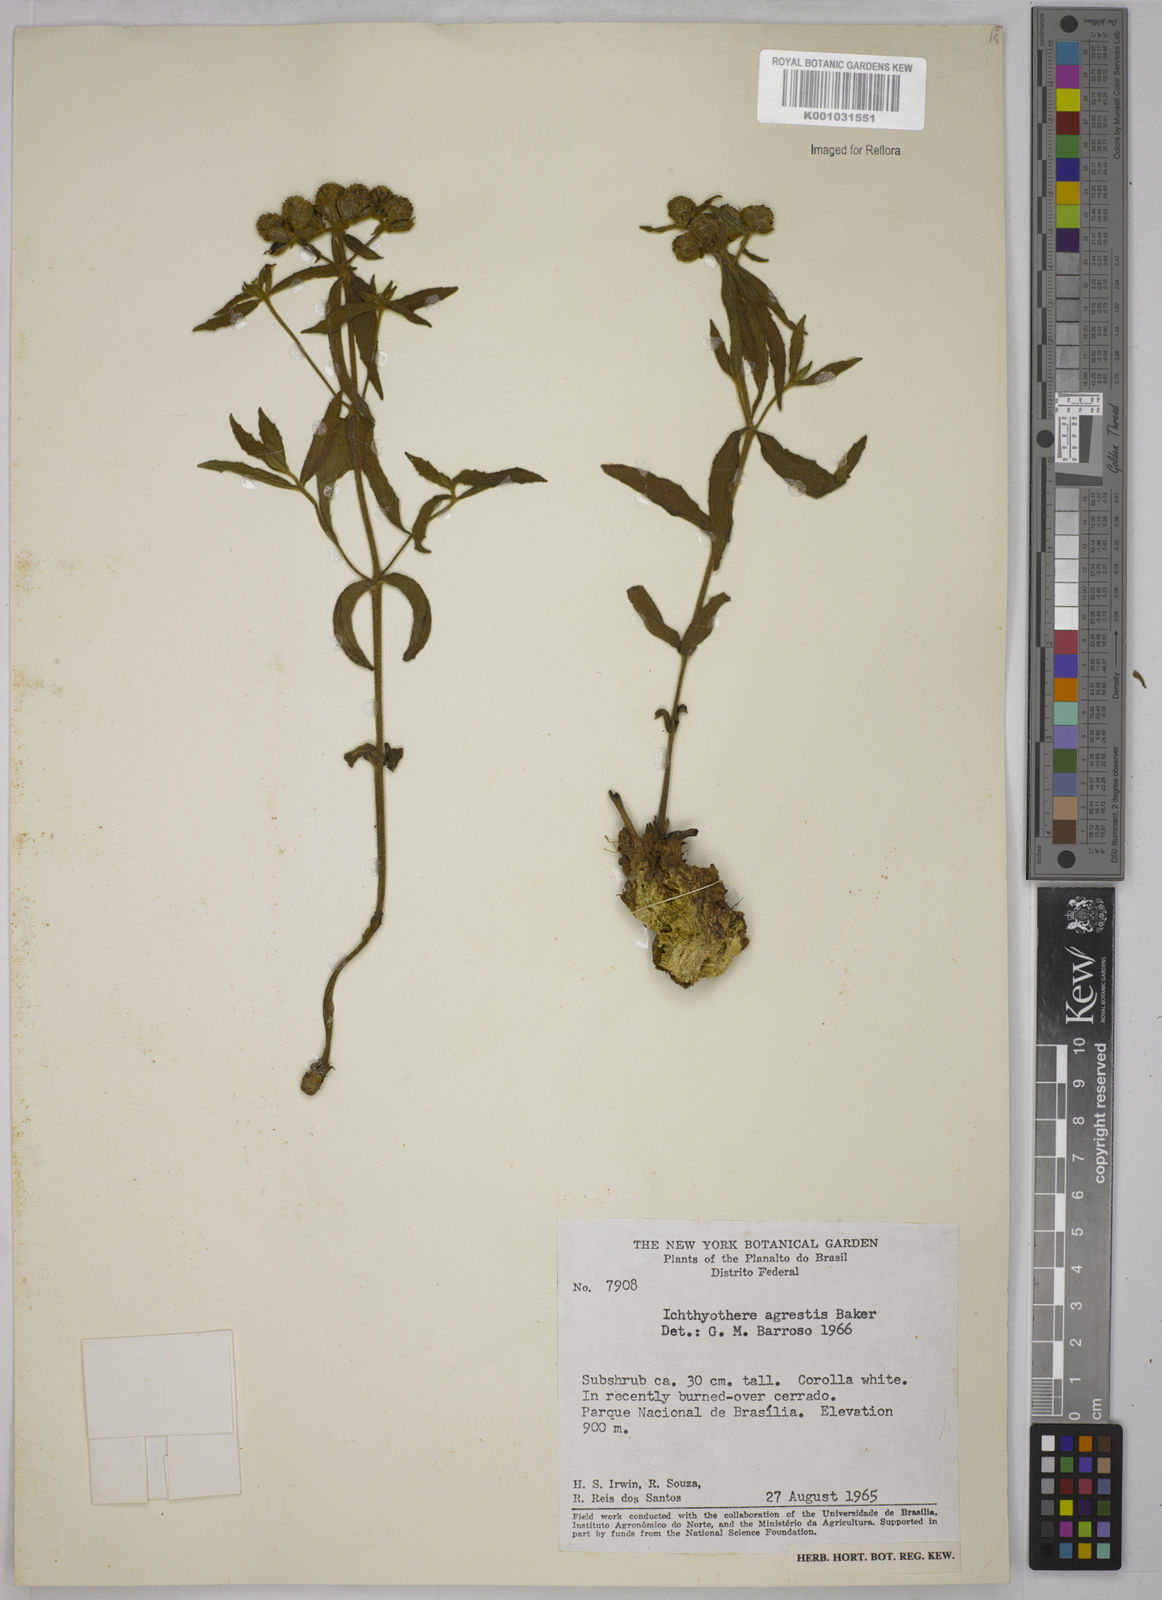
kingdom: Plantae
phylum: Tracheophyta
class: Magnoliopsida
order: Asterales
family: Asteraceae
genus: Ichthyothere
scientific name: Ichthyothere integrifolia
